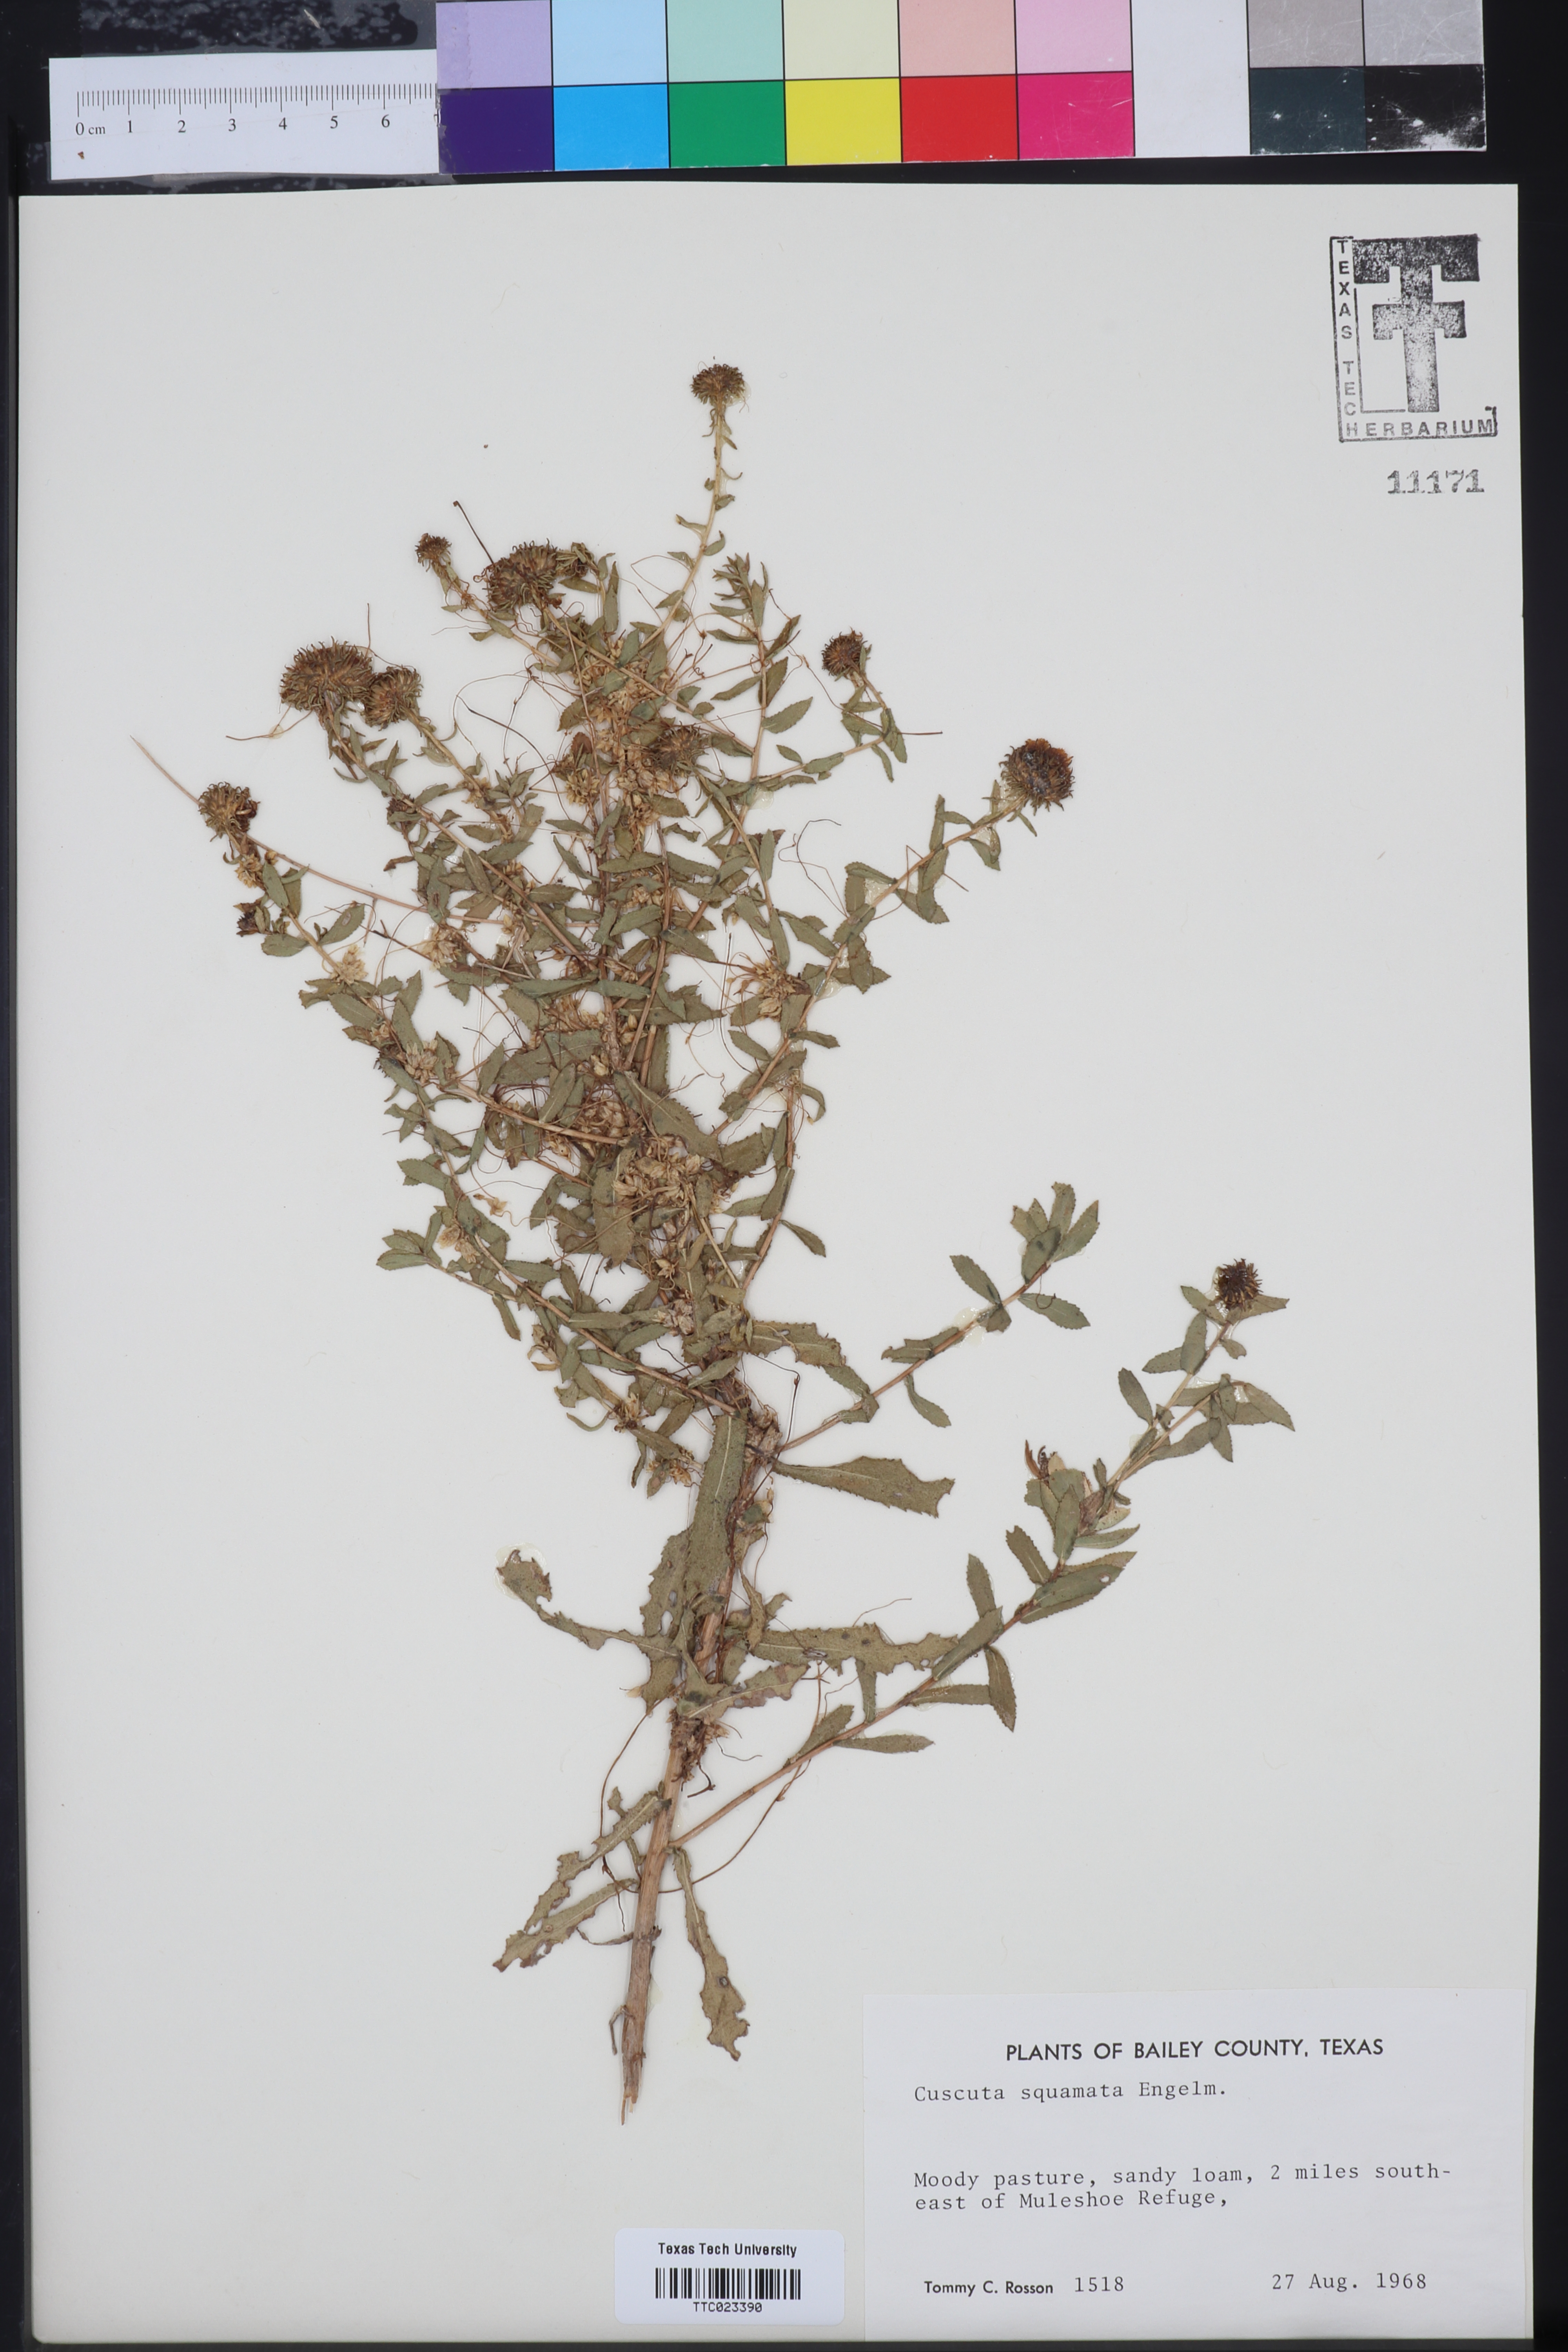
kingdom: Plantae
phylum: Tracheophyta
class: Magnoliopsida
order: Solanales
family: Convolvulaceae
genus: Cuscuta
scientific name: Cuscuta squamata
